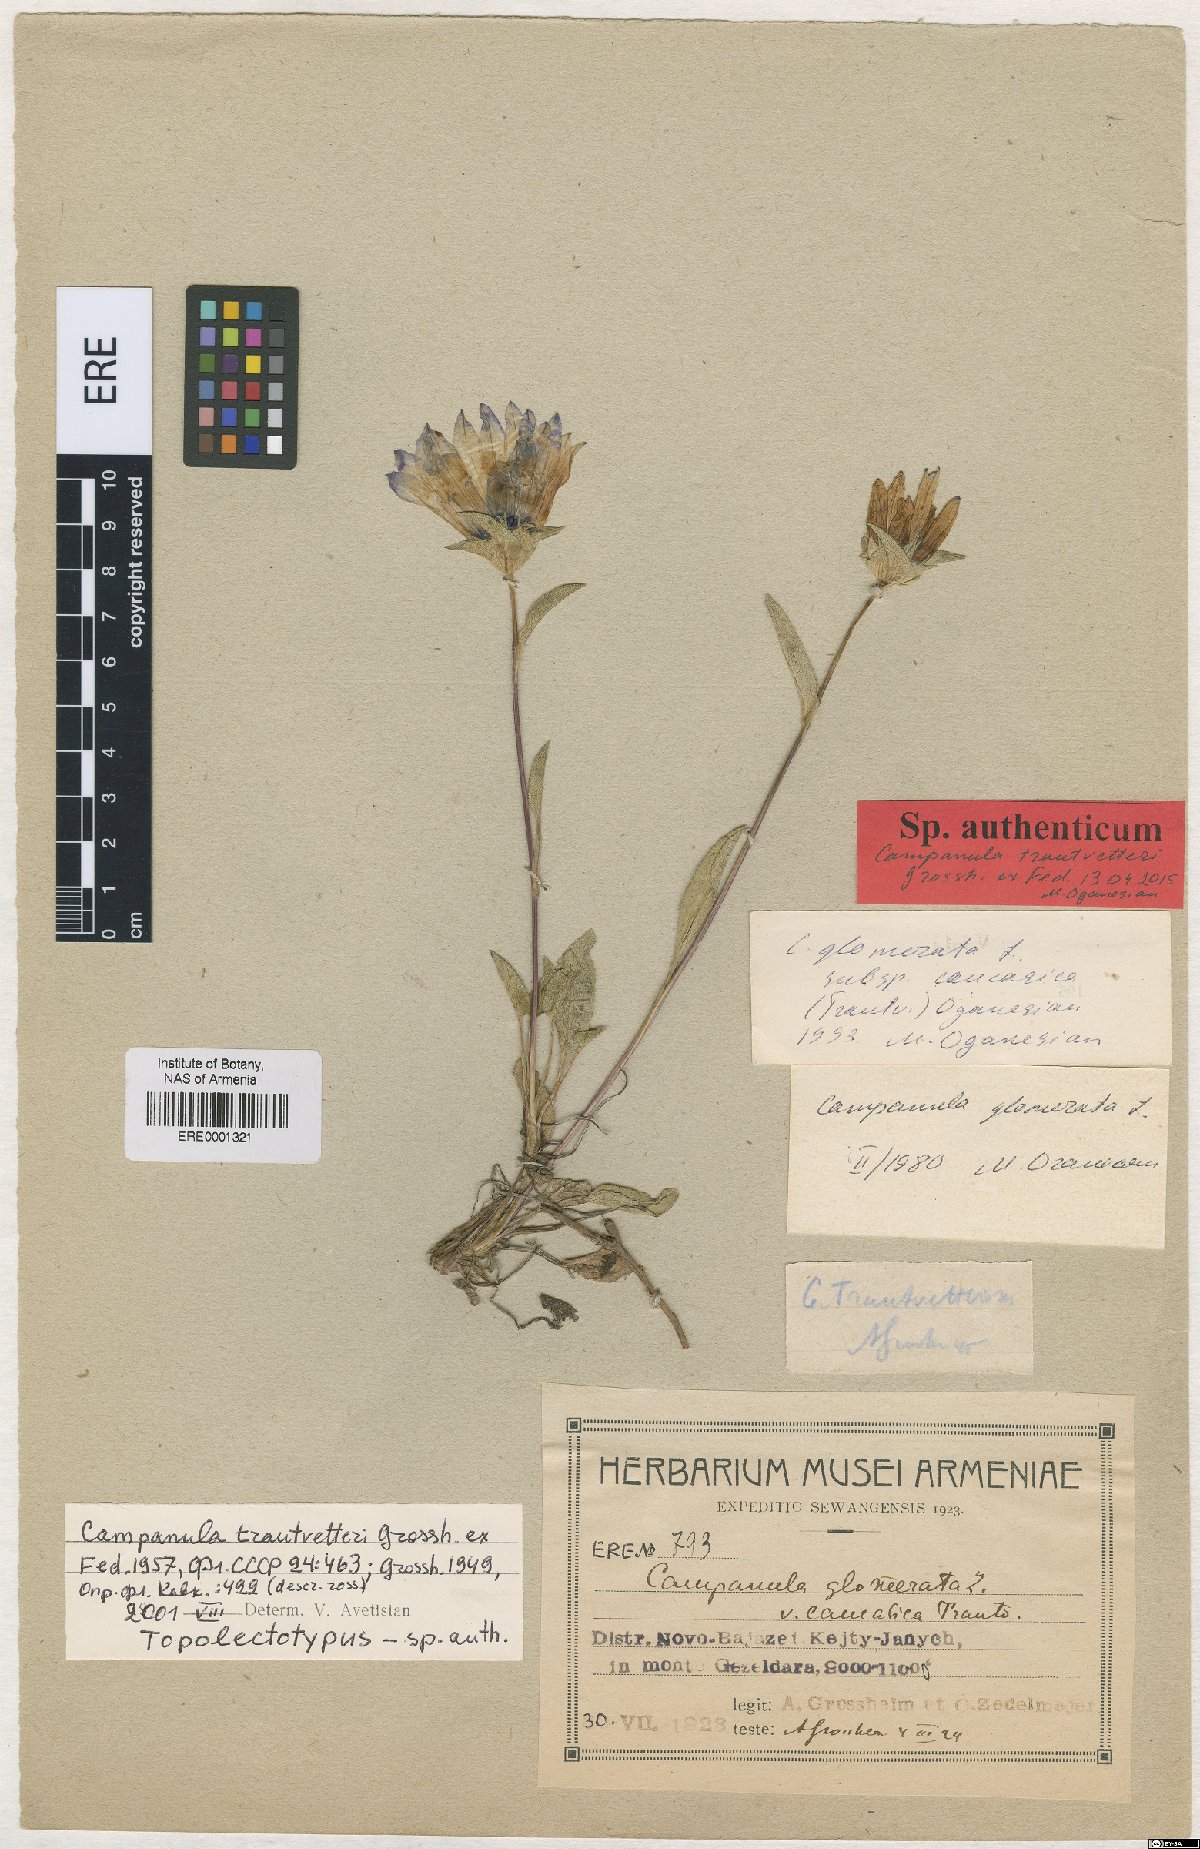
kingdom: Plantae
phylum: Tracheophyta
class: Magnoliopsida
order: Asterales
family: Campanulaceae
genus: Campanula
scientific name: Campanula glomerata
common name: Clustered bellflower
